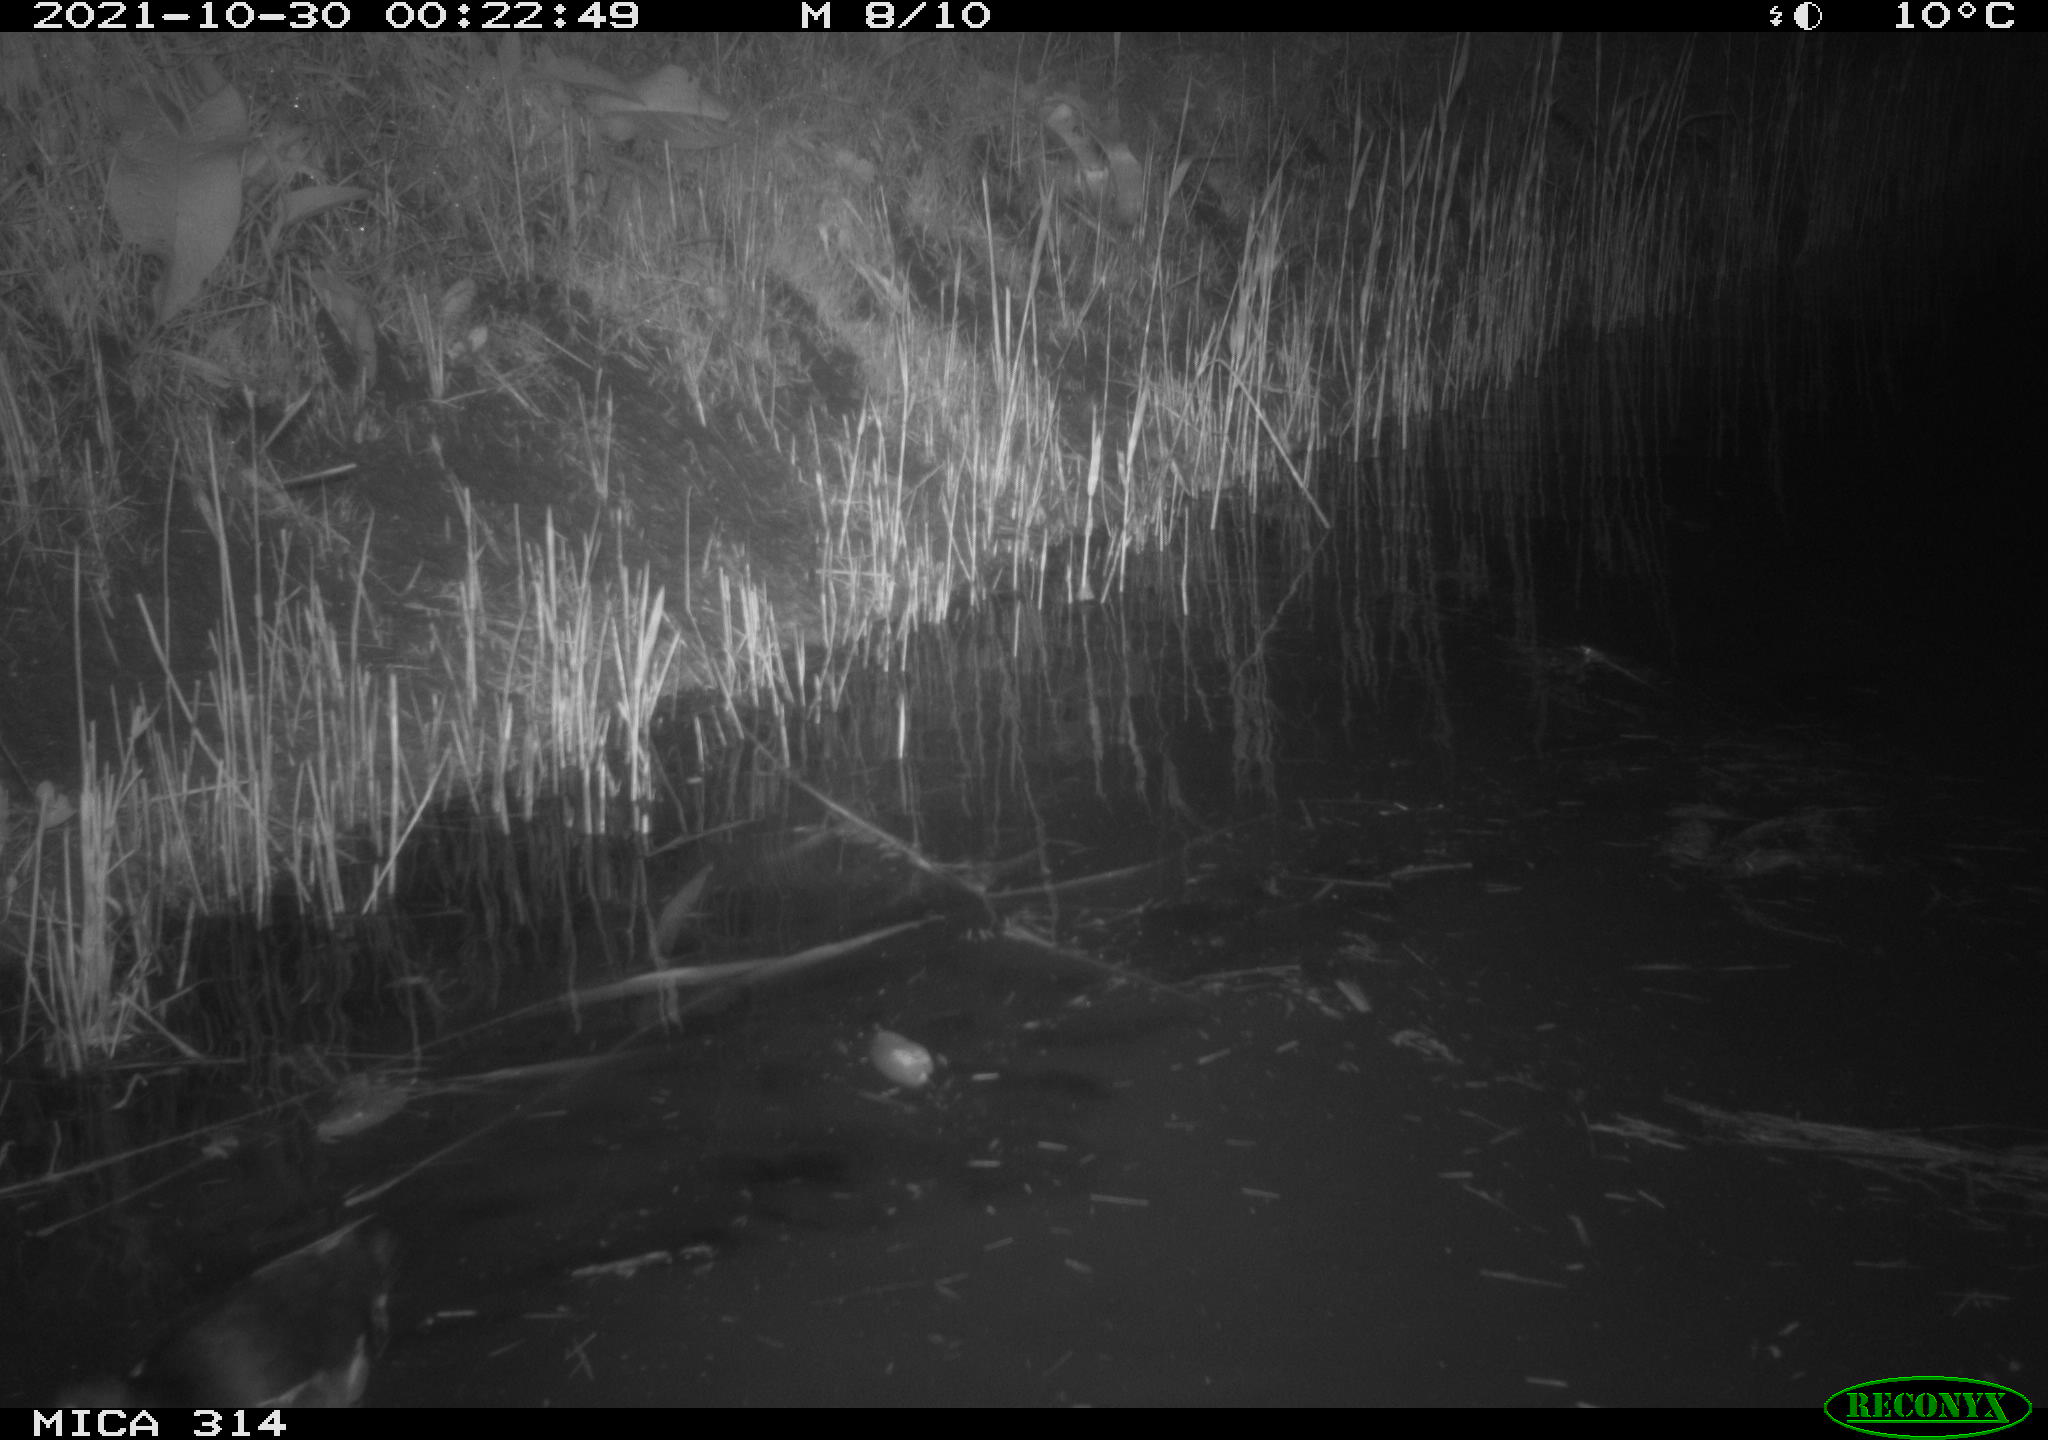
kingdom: Animalia
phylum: Chordata
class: Aves
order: Gruiformes
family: Rallidae
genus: Gallinula
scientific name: Gallinula chloropus
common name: Common moorhen
